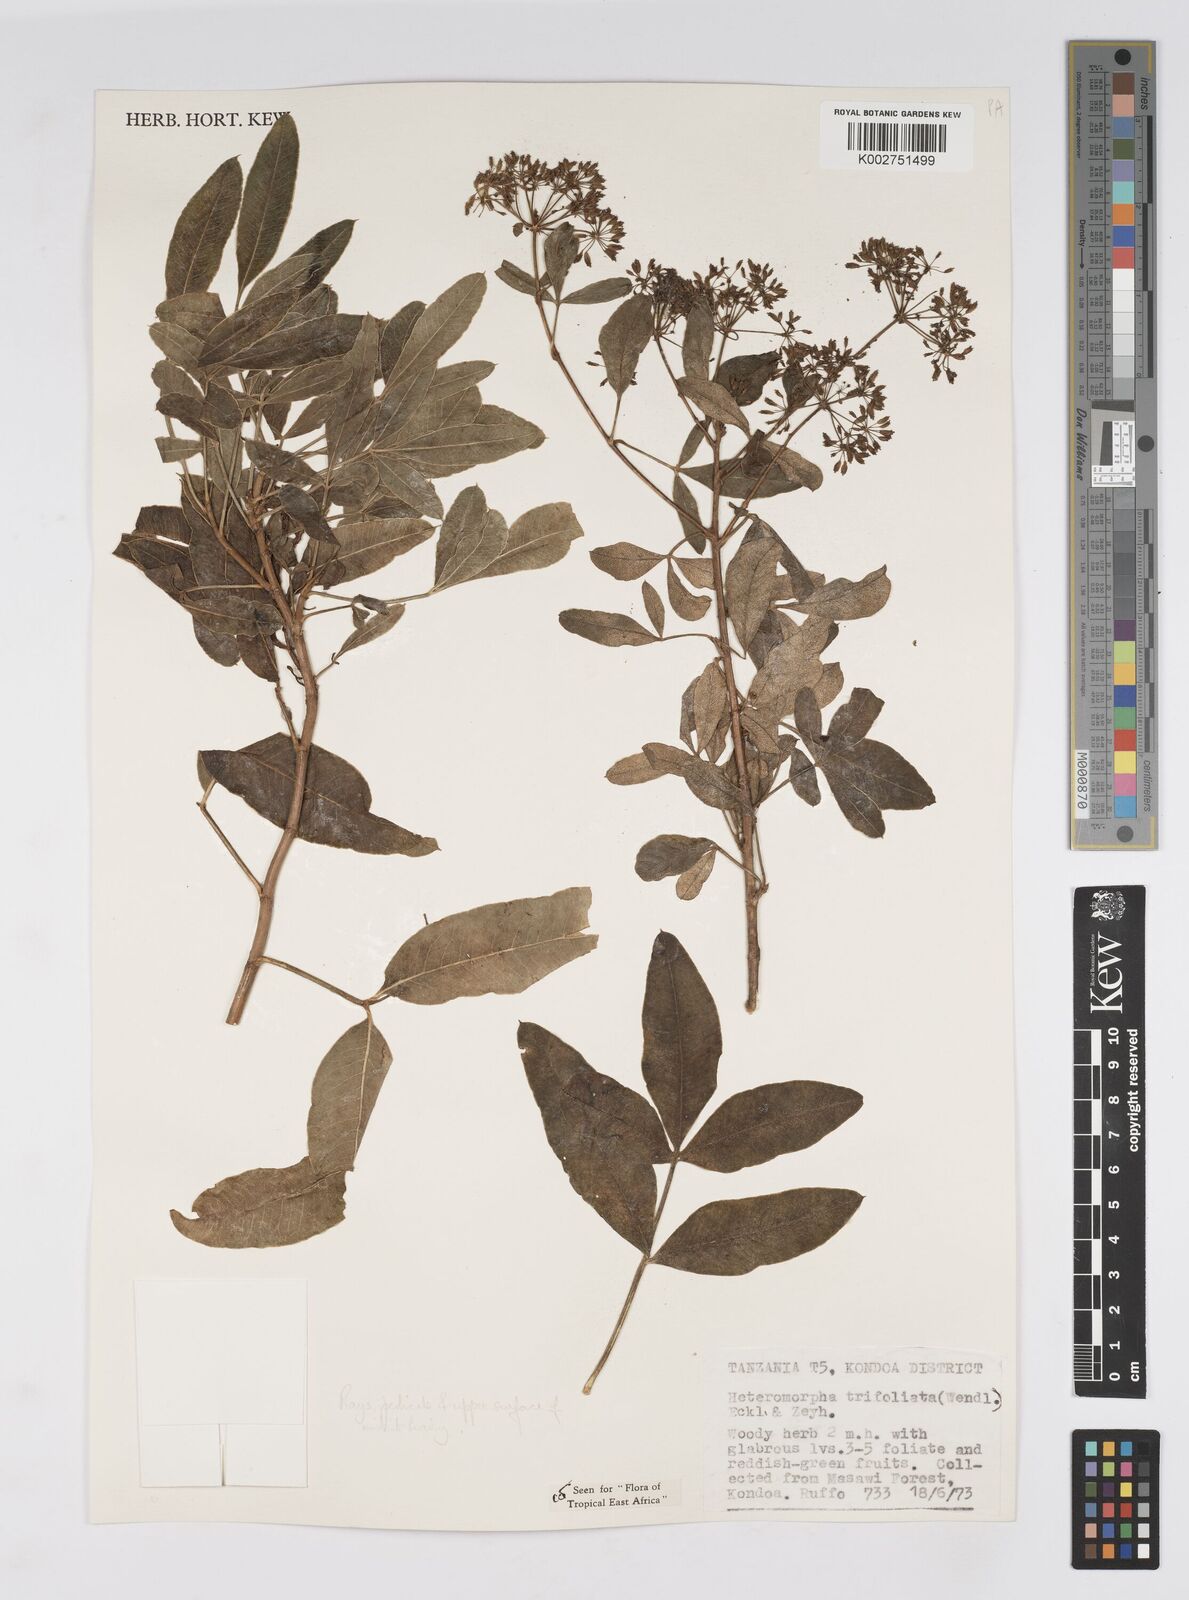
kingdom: Plantae
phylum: Tracheophyta
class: Magnoliopsida
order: Apiales
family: Apiaceae
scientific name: Apiaceae
